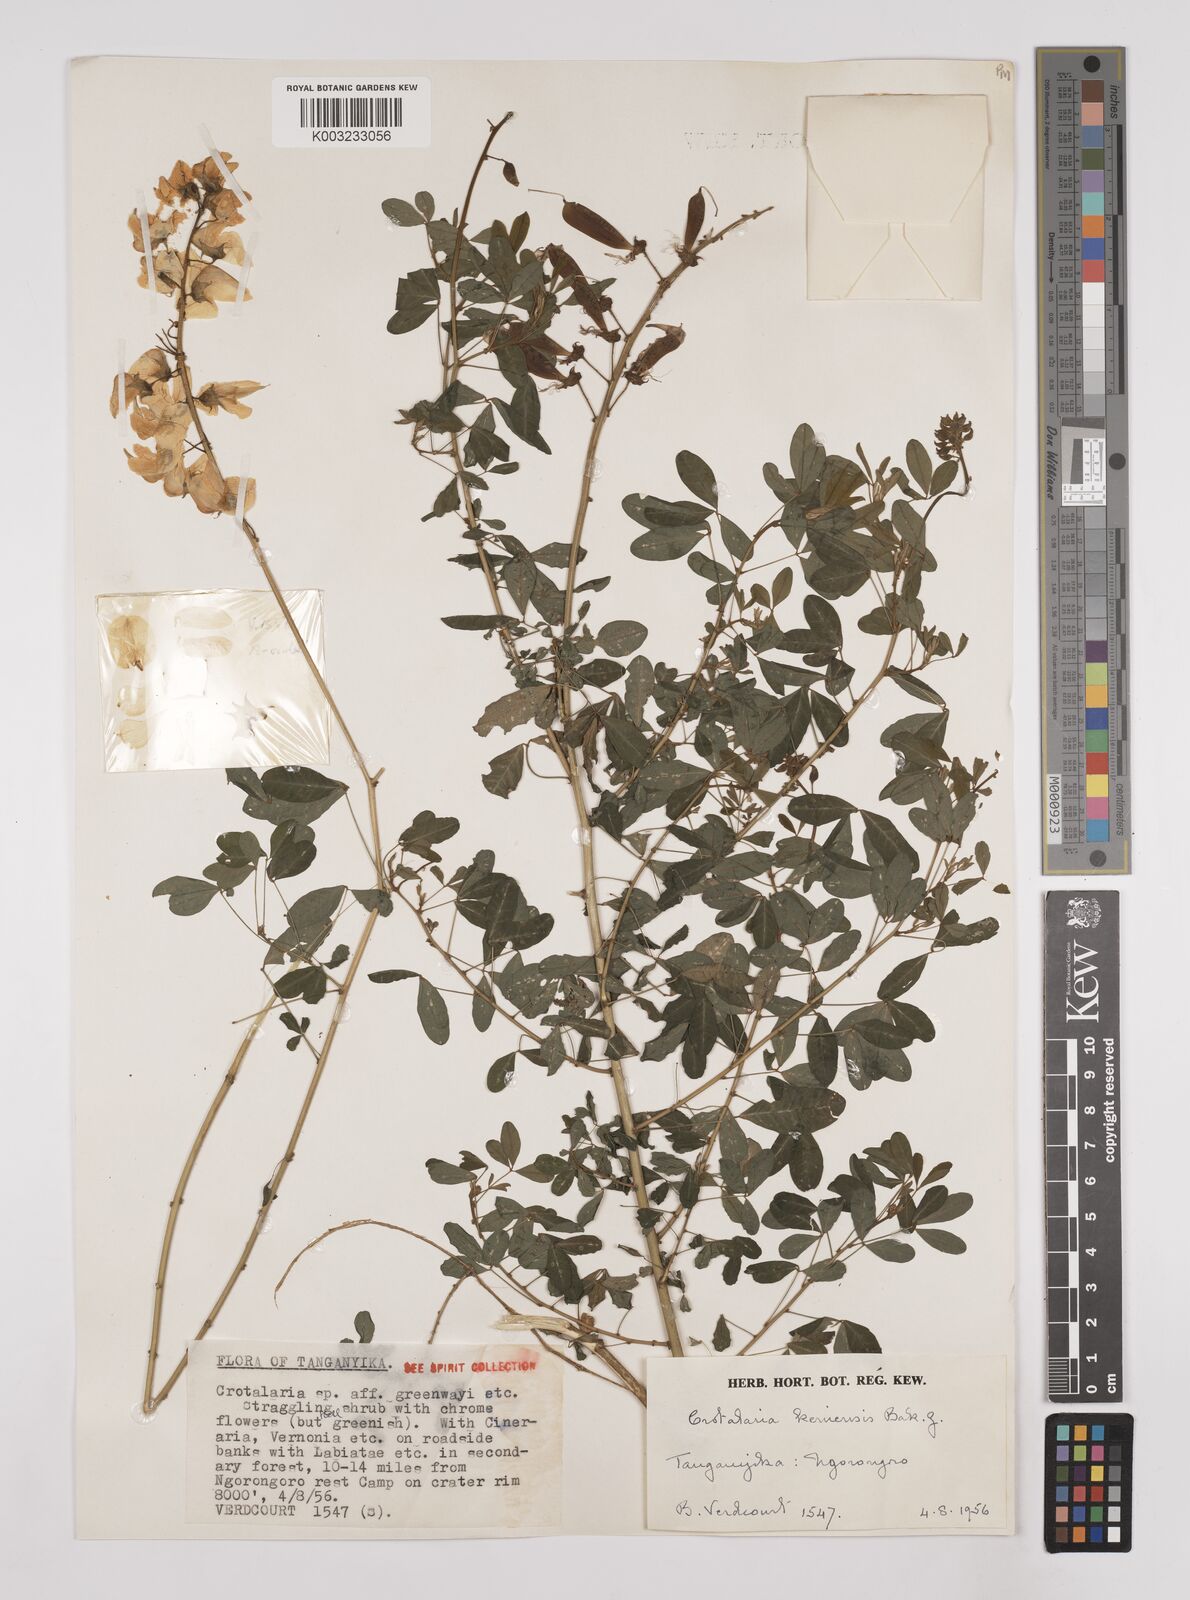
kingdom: Plantae
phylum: Tracheophyta
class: Magnoliopsida
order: Fabales
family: Fabaceae
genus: Crotalaria
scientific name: Crotalaria keniensis
